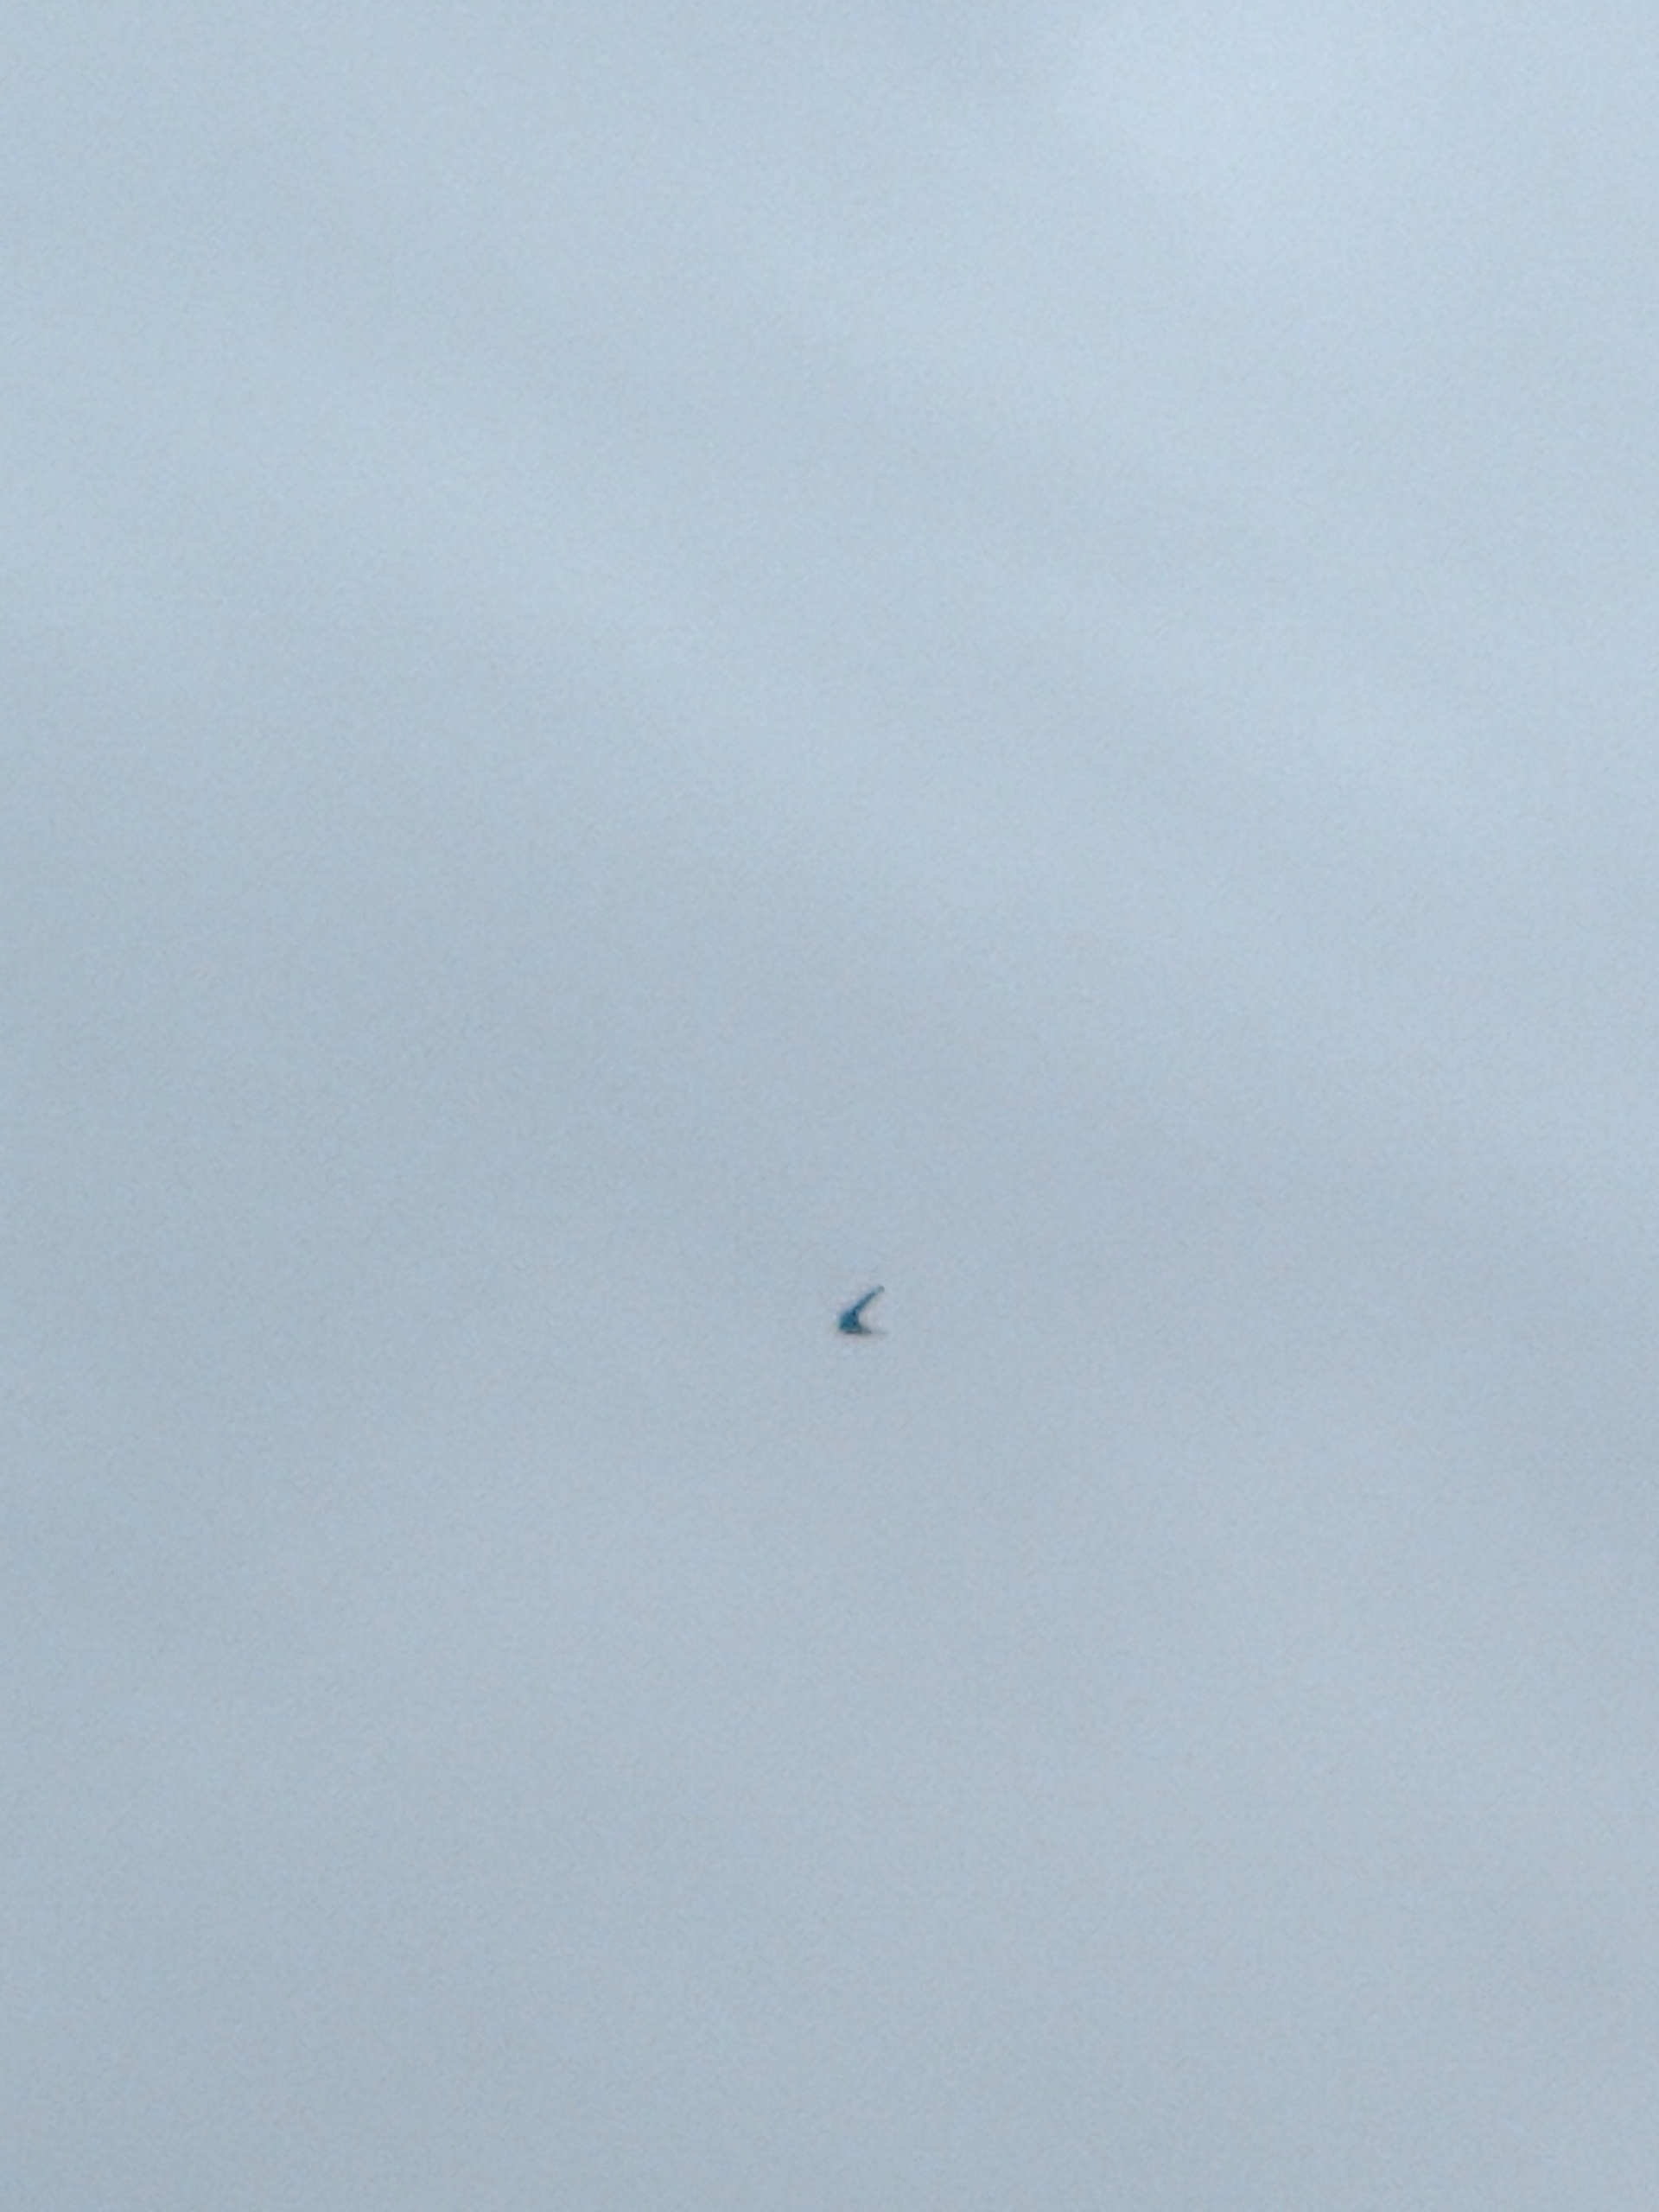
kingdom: Animalia
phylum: Chordata
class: Aves
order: Apodiformes
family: Apodidae
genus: Apus
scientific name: Apus apus
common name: Mursejler
